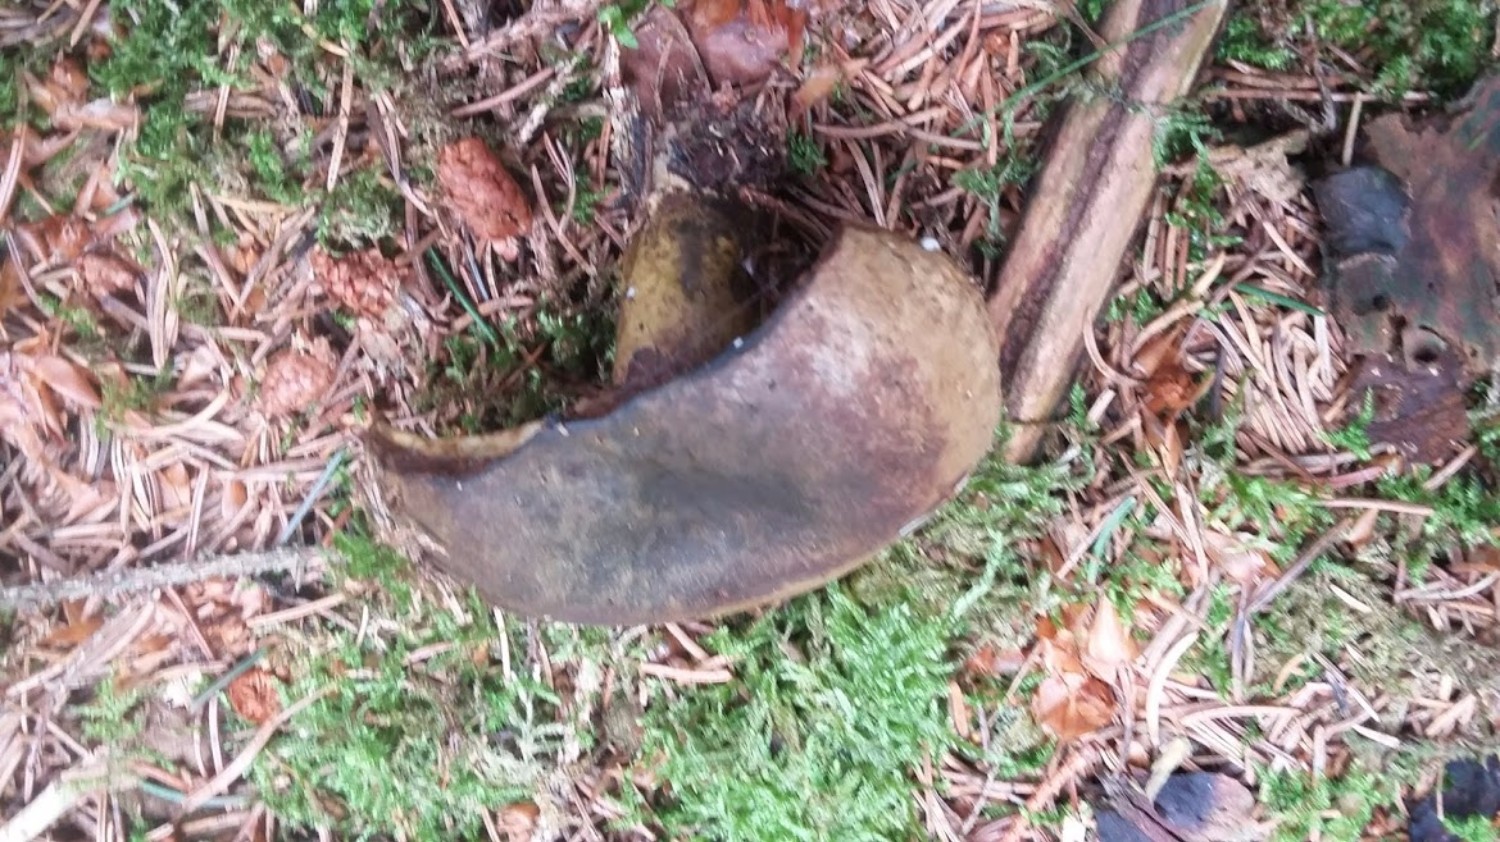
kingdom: Fungi
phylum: Basidiomycota
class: Agaricomycetes
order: Russulales
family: Russulaceae
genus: Lactarius
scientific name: Lactarius necator
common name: manddraber-mælkehat
